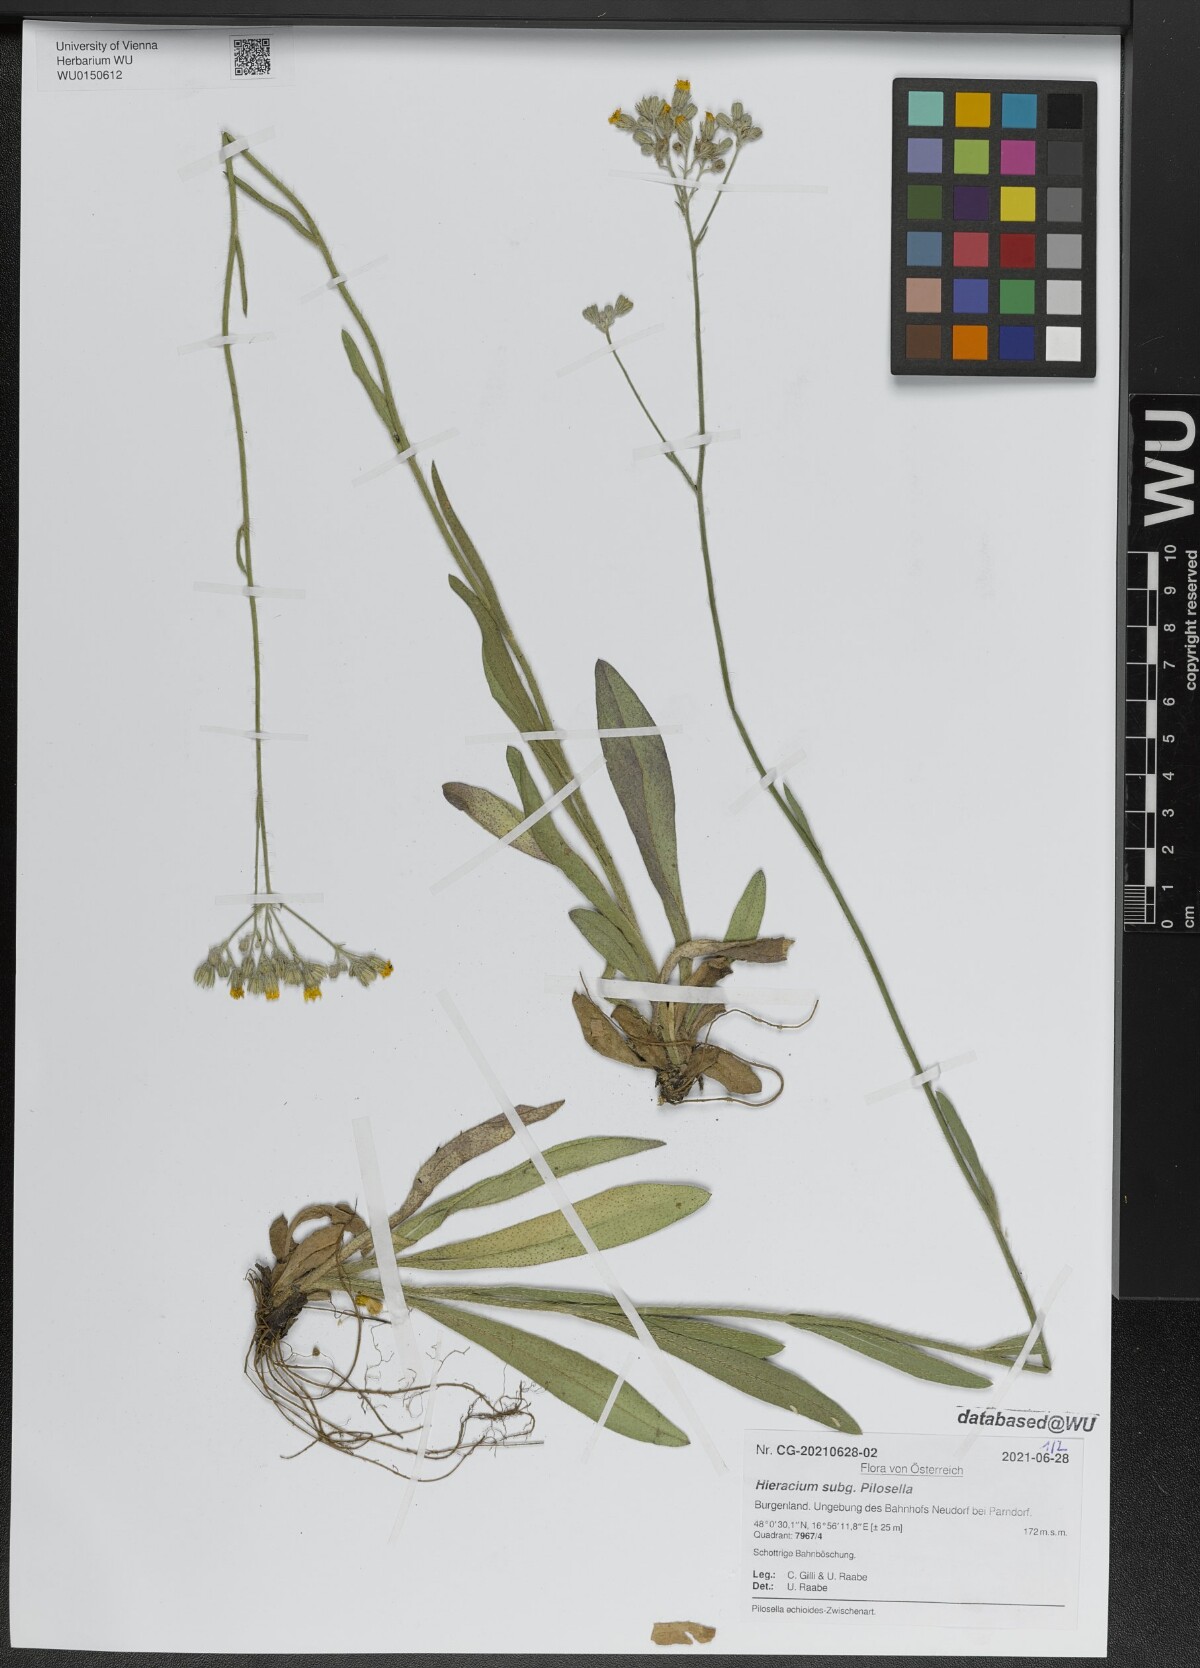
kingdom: Plantae
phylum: Tracheophyta
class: Magnoliopsida
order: Asterales
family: Asteraceae
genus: Pilosella
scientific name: Pilosella
